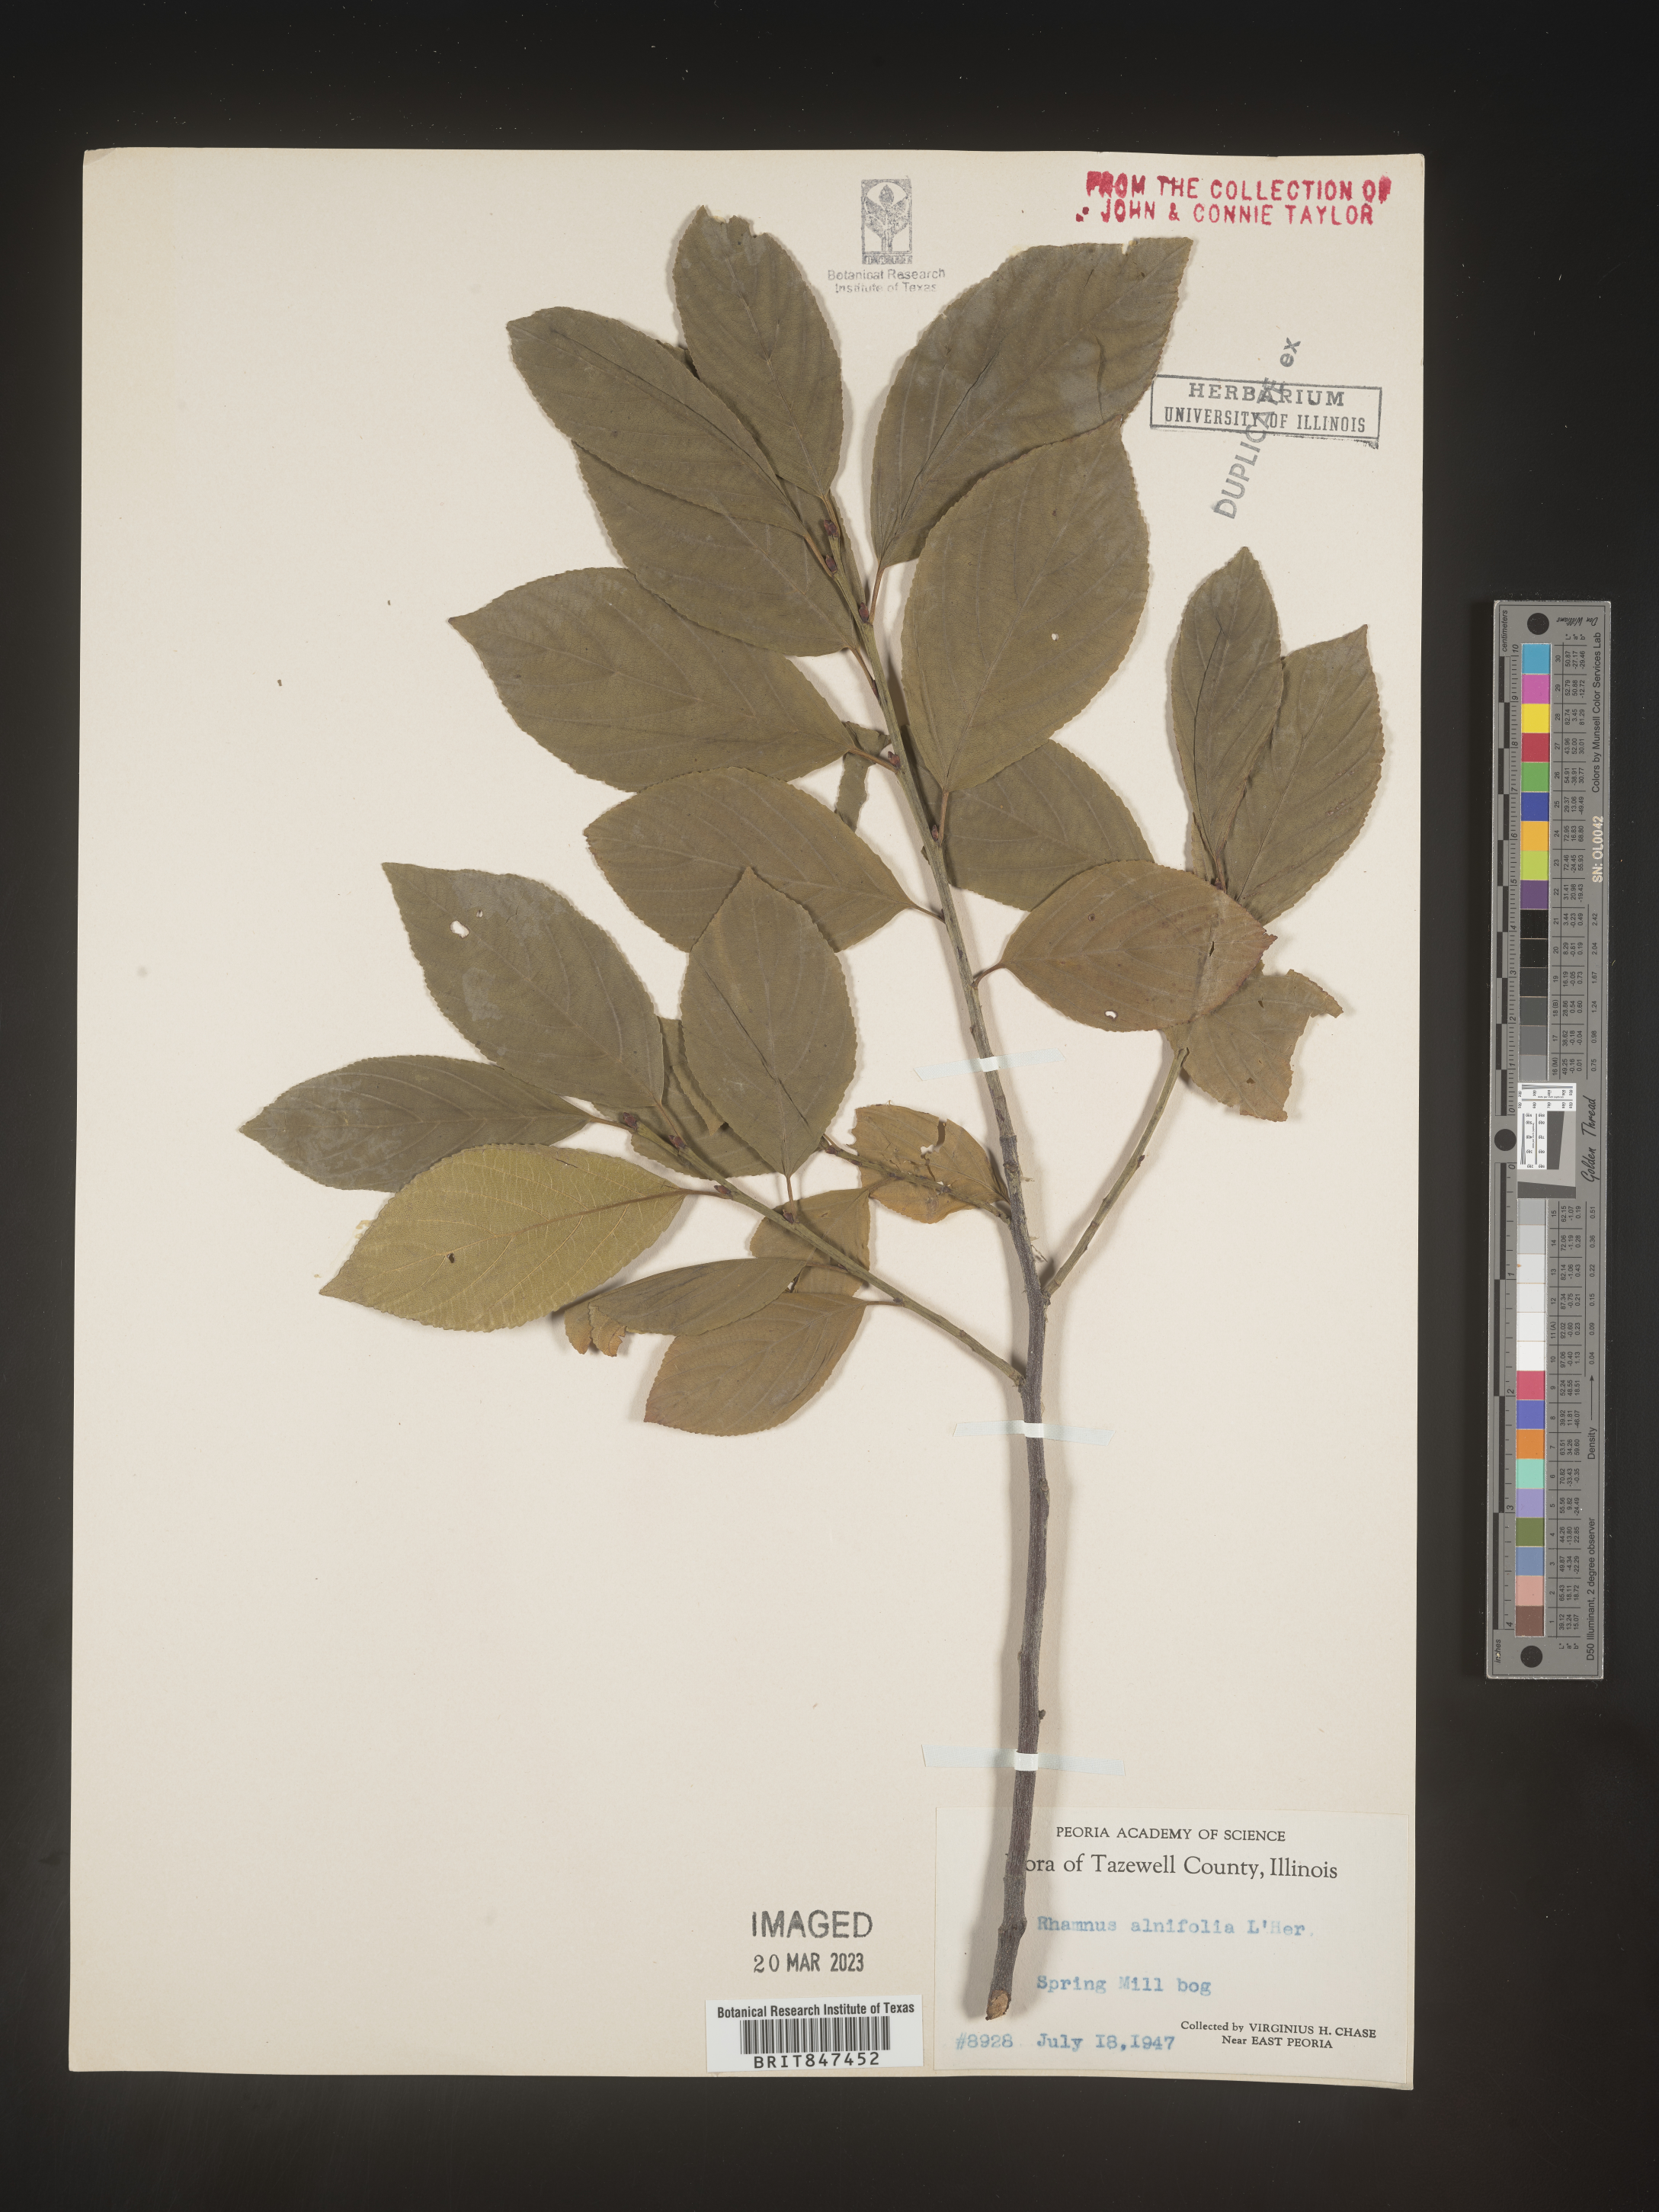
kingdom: Plantae
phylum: Tracheophyta
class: Magnoliopsida
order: Rosales
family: Rhamnaceae
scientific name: Rhamnaceae
